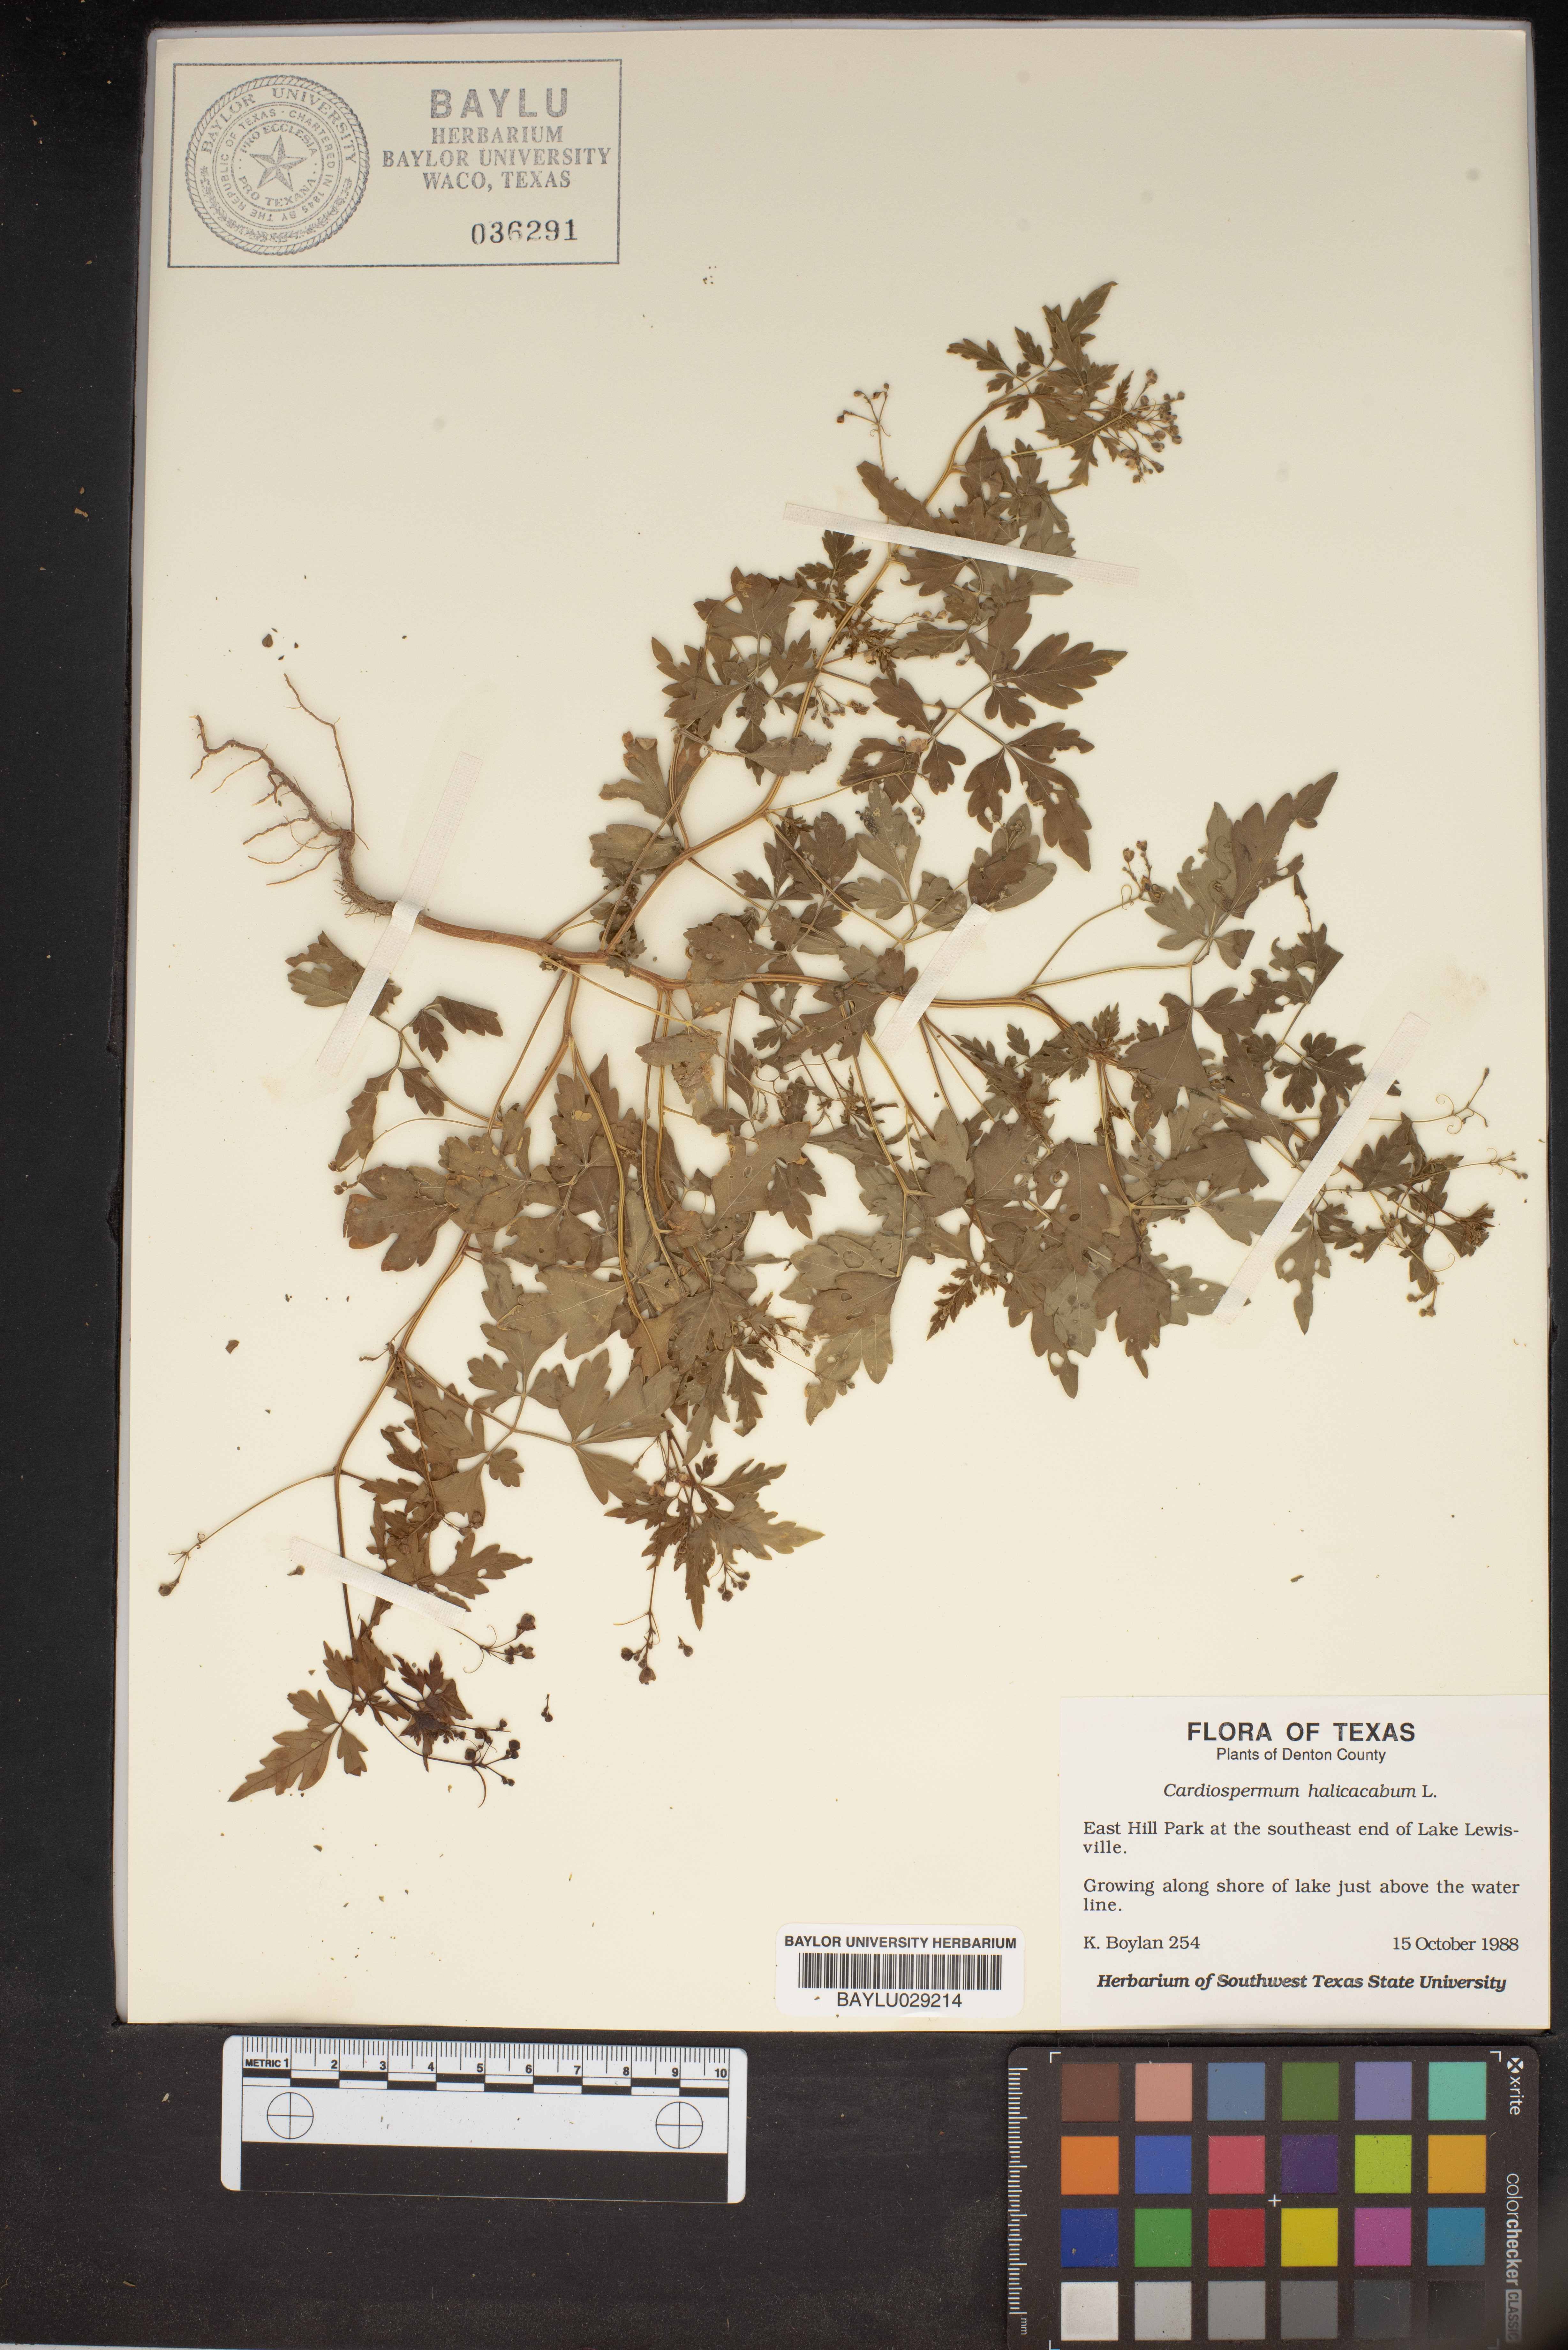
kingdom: Plantae
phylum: Tracheophyta
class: Magnoliopsida
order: Sapindales
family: Sapindaceae
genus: Cardiospermum
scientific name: Cardiospermum halicacabum
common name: Balloon vine
